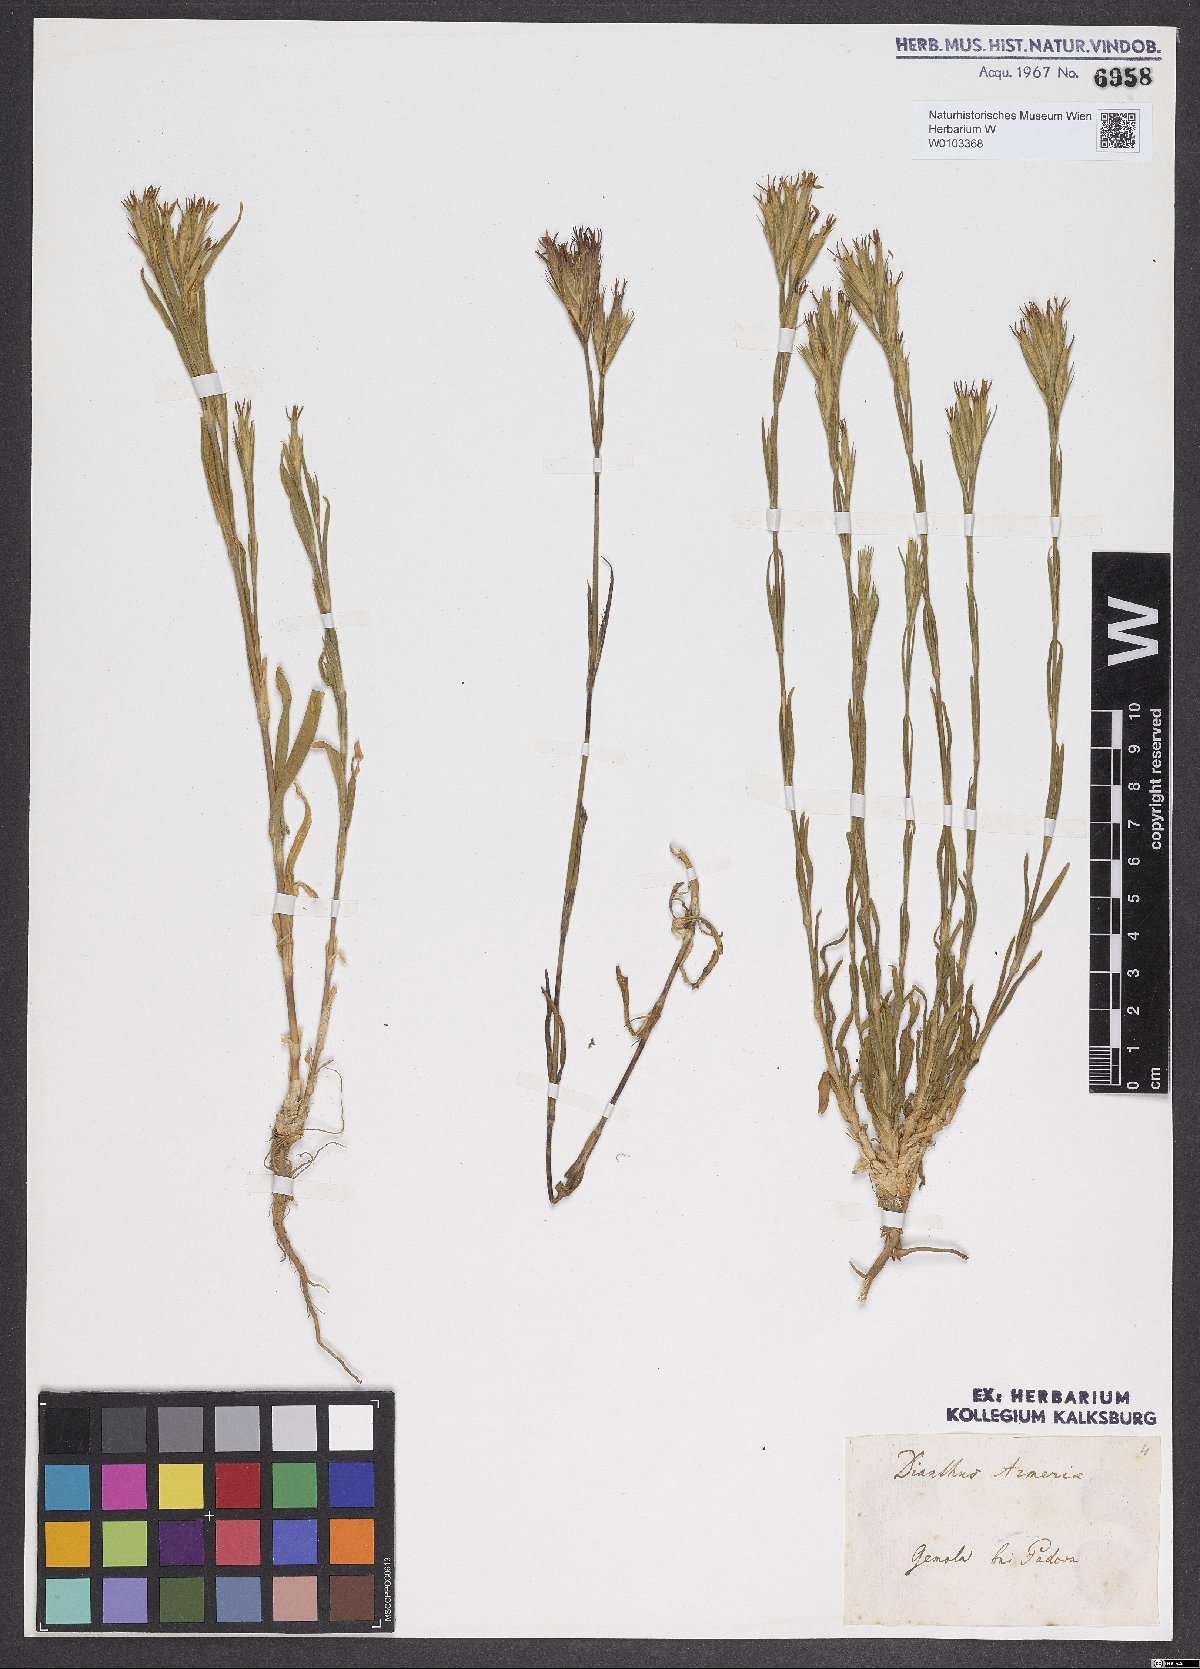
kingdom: Plantae
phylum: Tracheophyta
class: Magnoliopsida
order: Caryophyllales
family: Caryophyllaceae
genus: Dianthus
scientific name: Dianthus armeria
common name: Deptford pink
